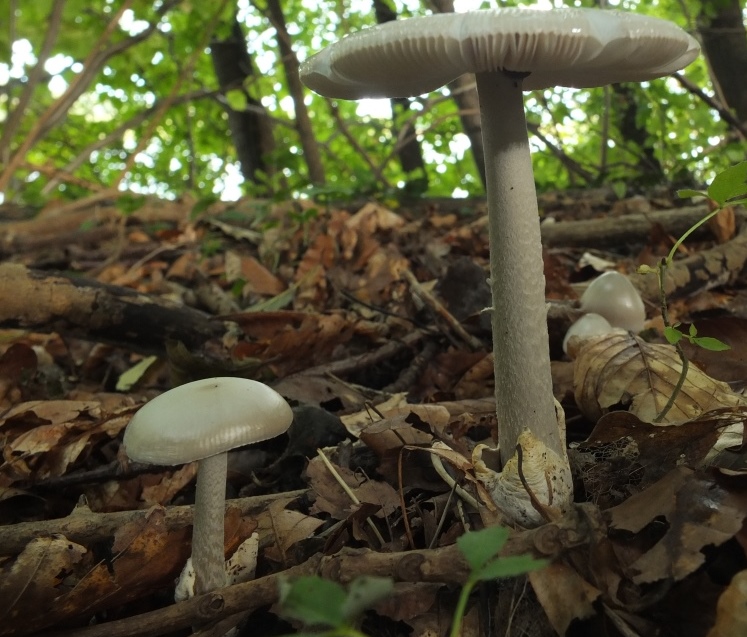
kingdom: Fungi
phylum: Basidiomycota
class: Agaricomycetes
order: Agaricales
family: Amanitaceae
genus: Amanita
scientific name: Amanita vaginata
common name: grå kam-fluesvamp
